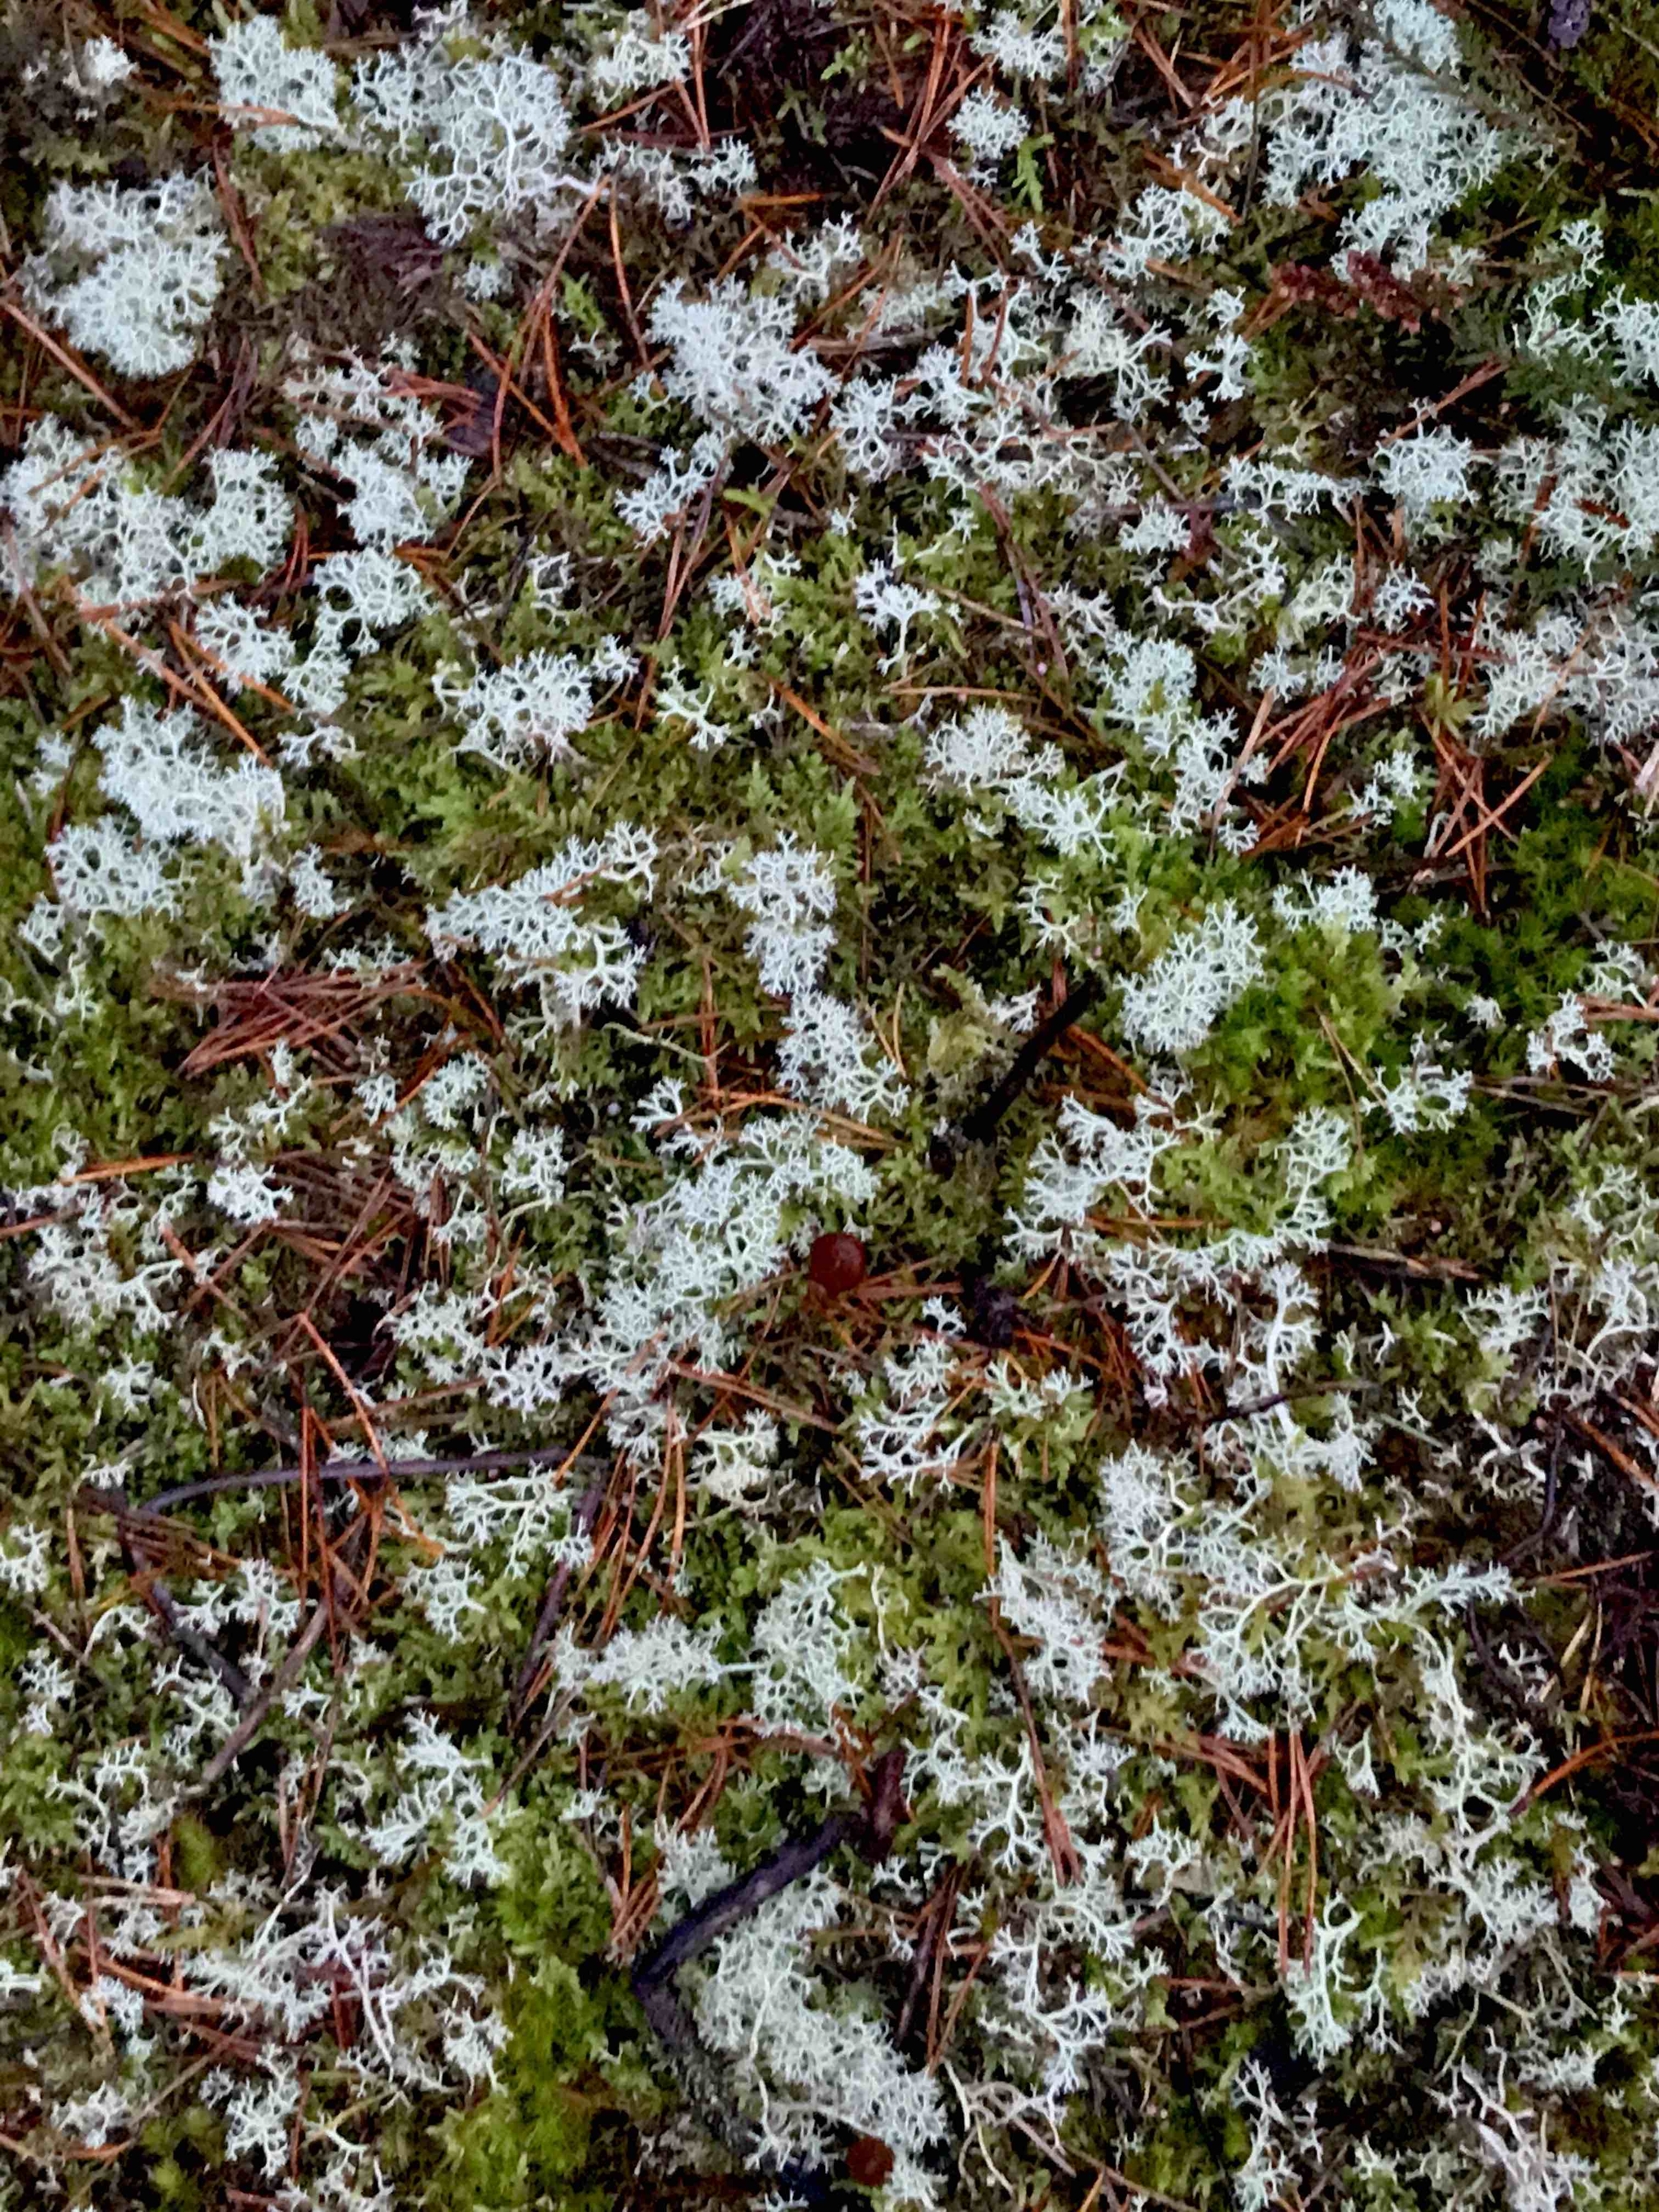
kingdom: Fungi
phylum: Ascomycota
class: Lecanoromycetes
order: Lecanorales
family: Cladoniaceae
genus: Cladonia
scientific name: Cladonia portentosa
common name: hede-rensdyrlav
